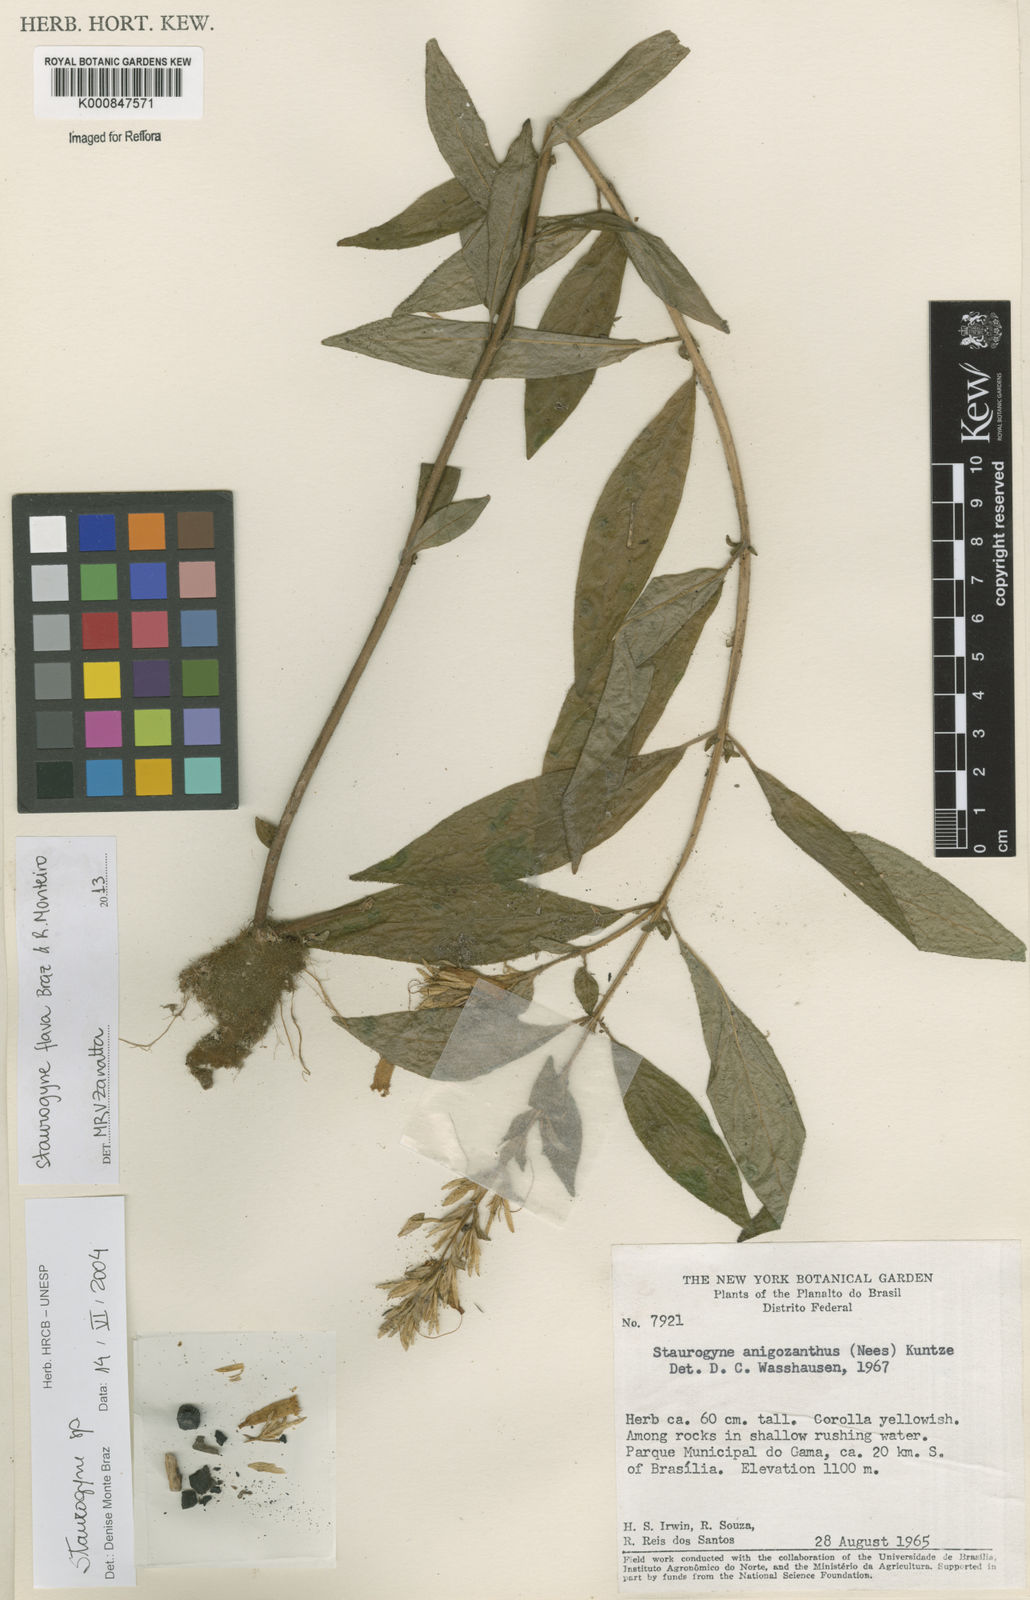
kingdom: Plantae
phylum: Tracheophyta
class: Magnoliopsida
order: Lamiales
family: Acanthaceae
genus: Staurogyne
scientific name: Staurogyne flava
